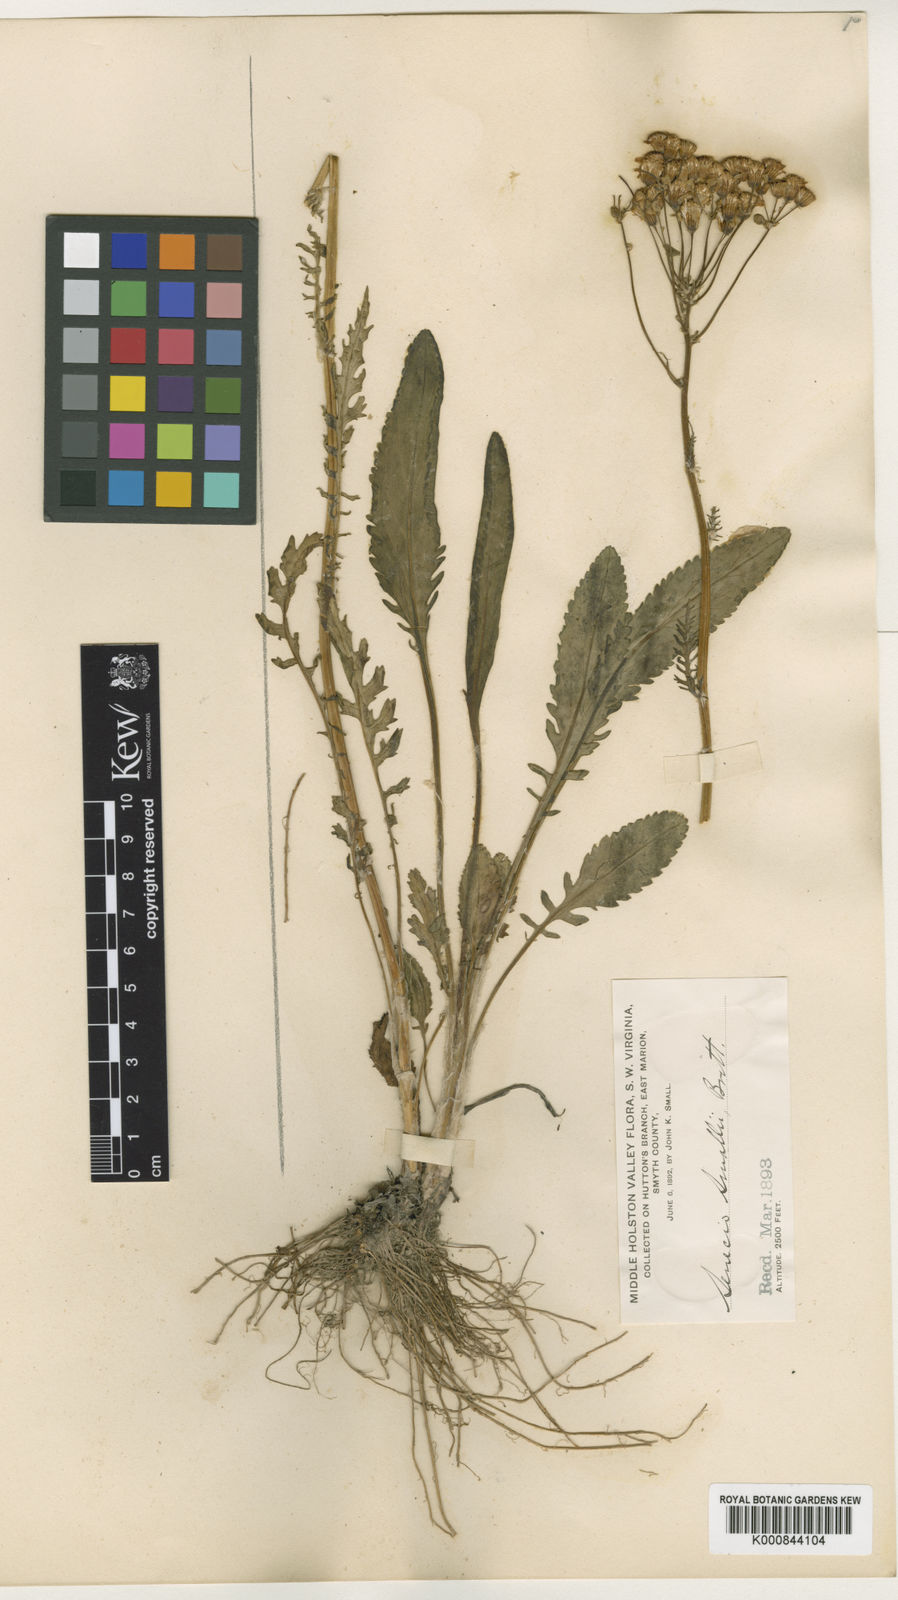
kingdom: Plantae
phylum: Tracheophyta
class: Magnoliopsida
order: Asterales
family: Asteraceae
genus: Packera
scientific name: Packera
